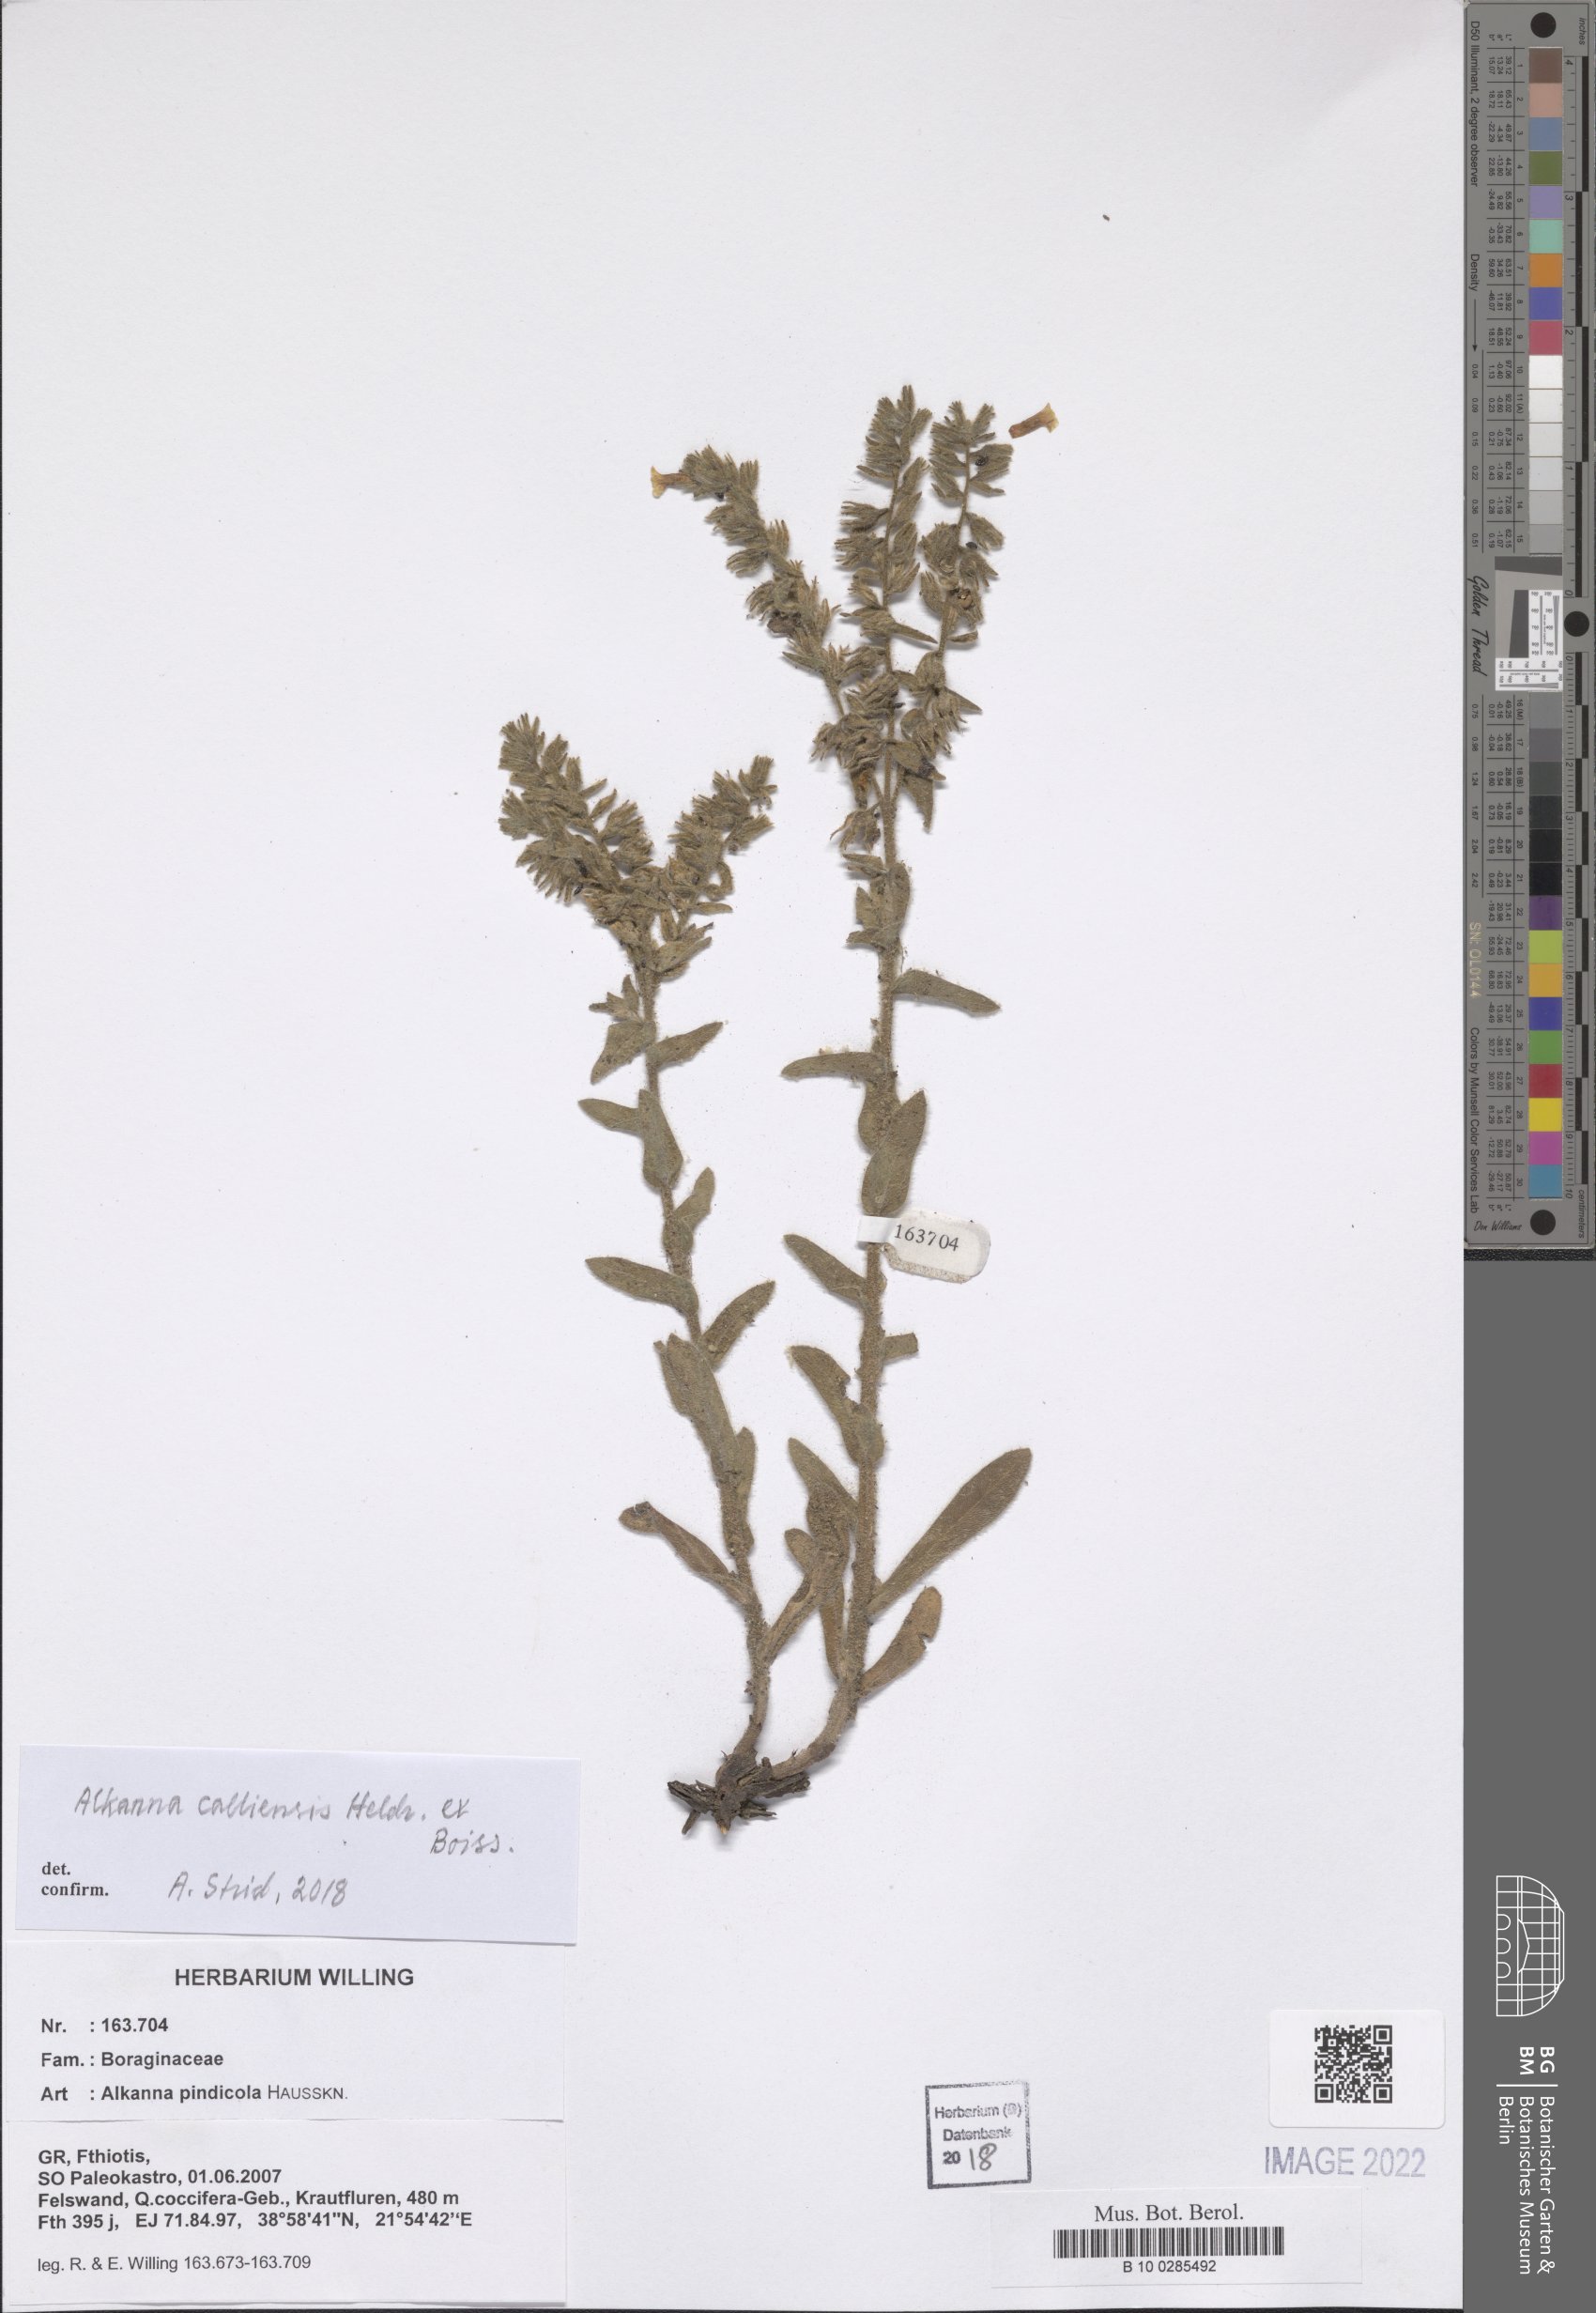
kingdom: Plantae
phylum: Tracheophyta
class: Magnoliopsida
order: Boraginales
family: Boraginaceae
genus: Alkanna
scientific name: Alkanna calliensis
